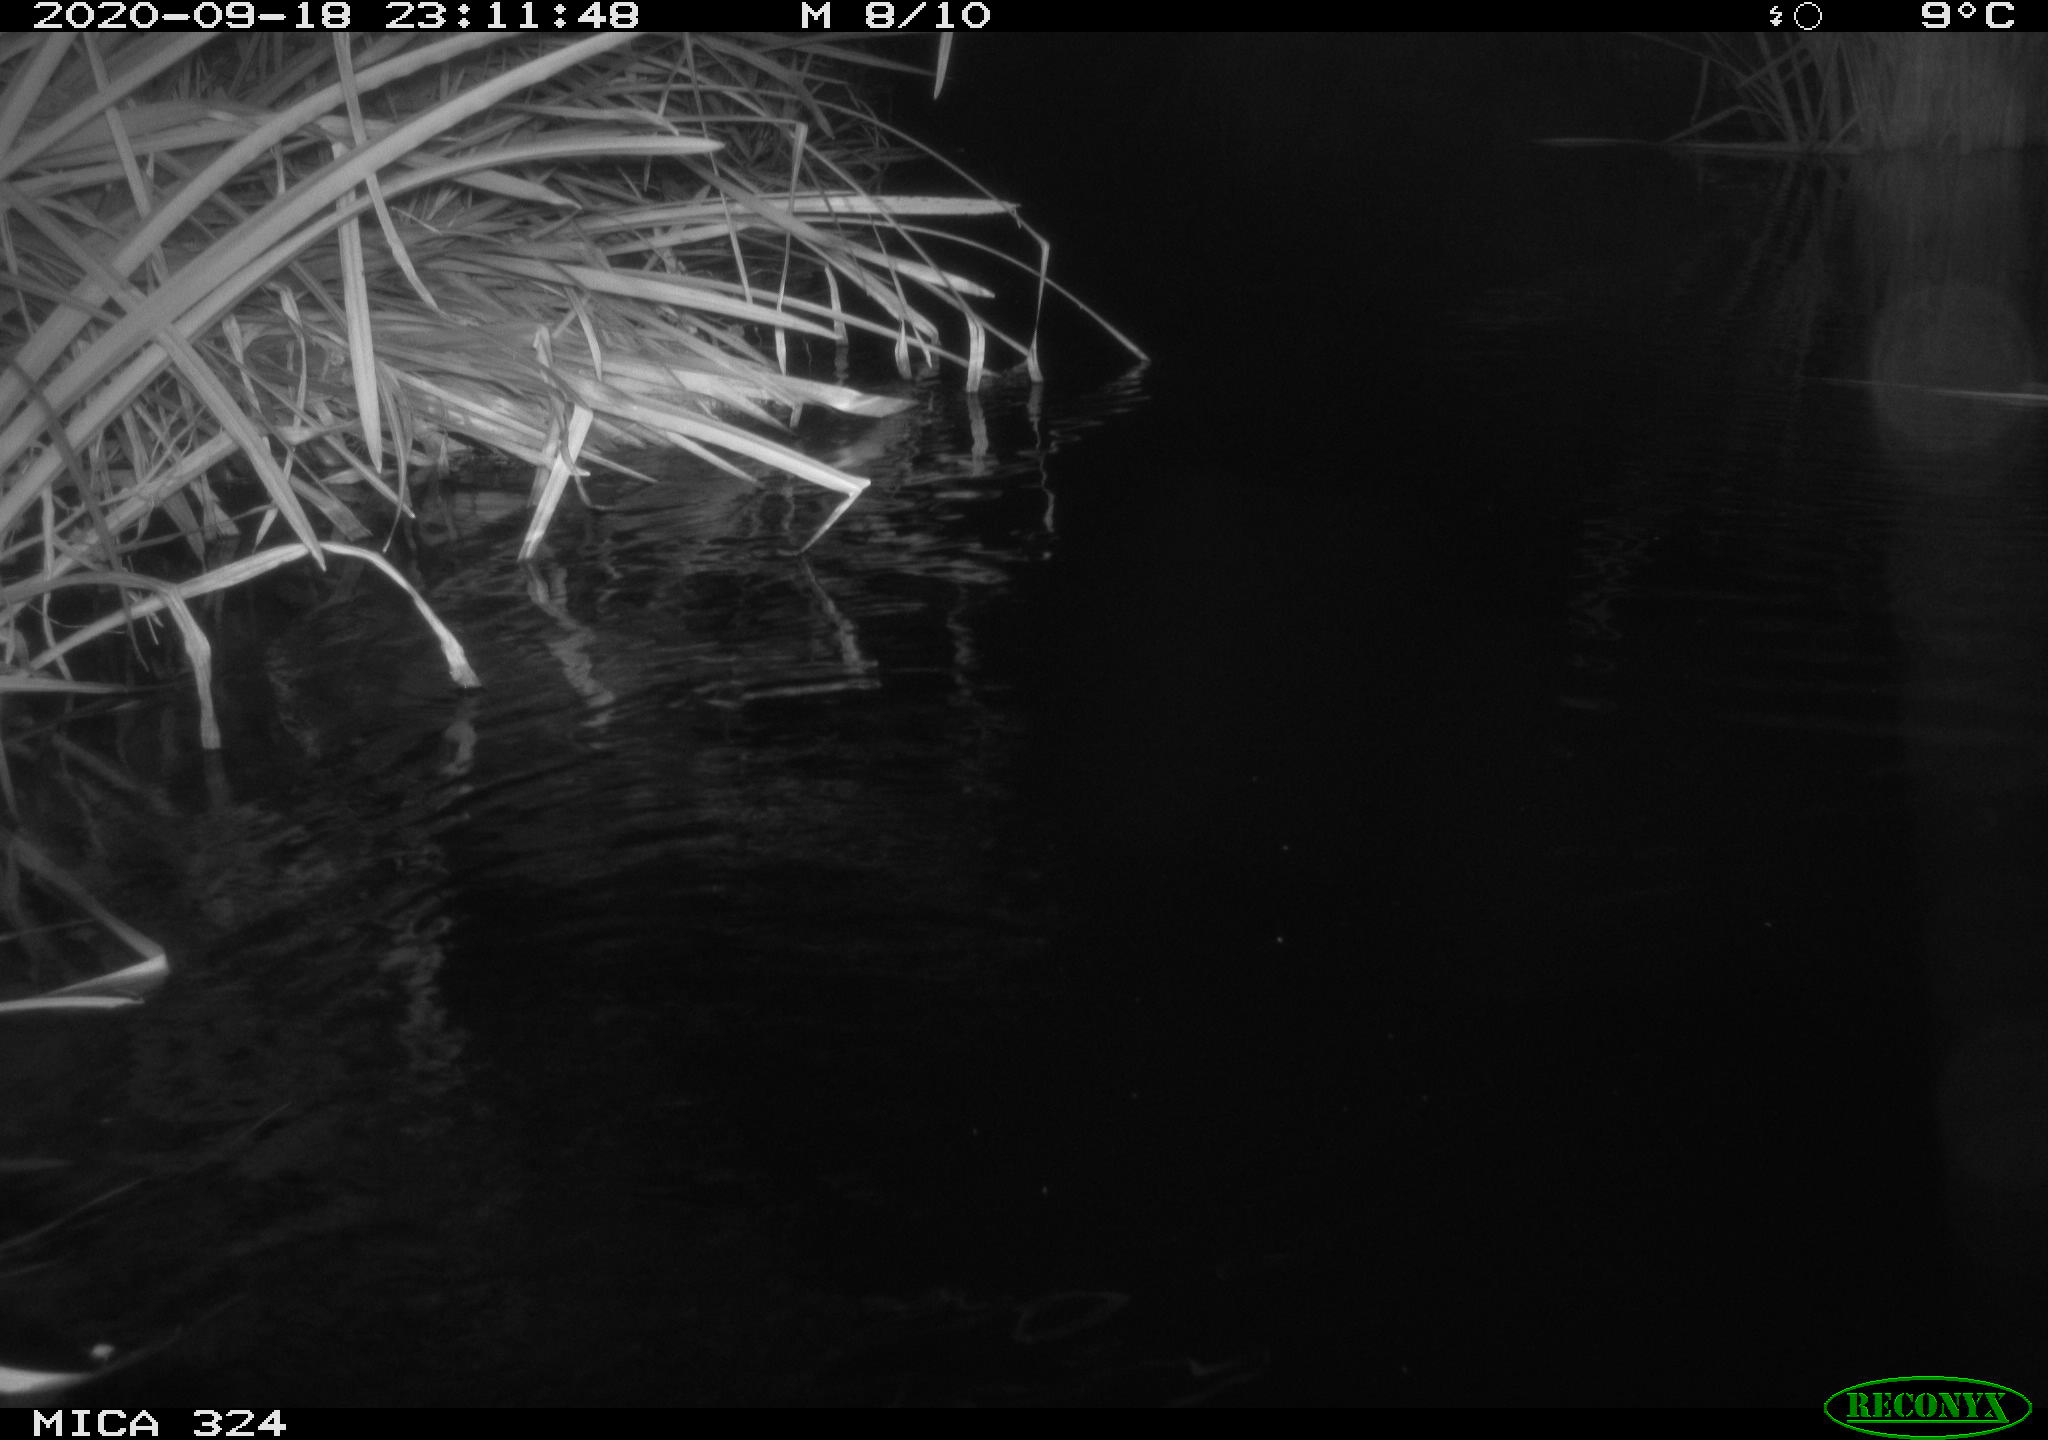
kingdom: Animalia
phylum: Chordata
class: Mammalia
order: Rodentia
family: Cricetidae
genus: Ondatra
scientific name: Ondatra zibethicus
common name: Muskrat
